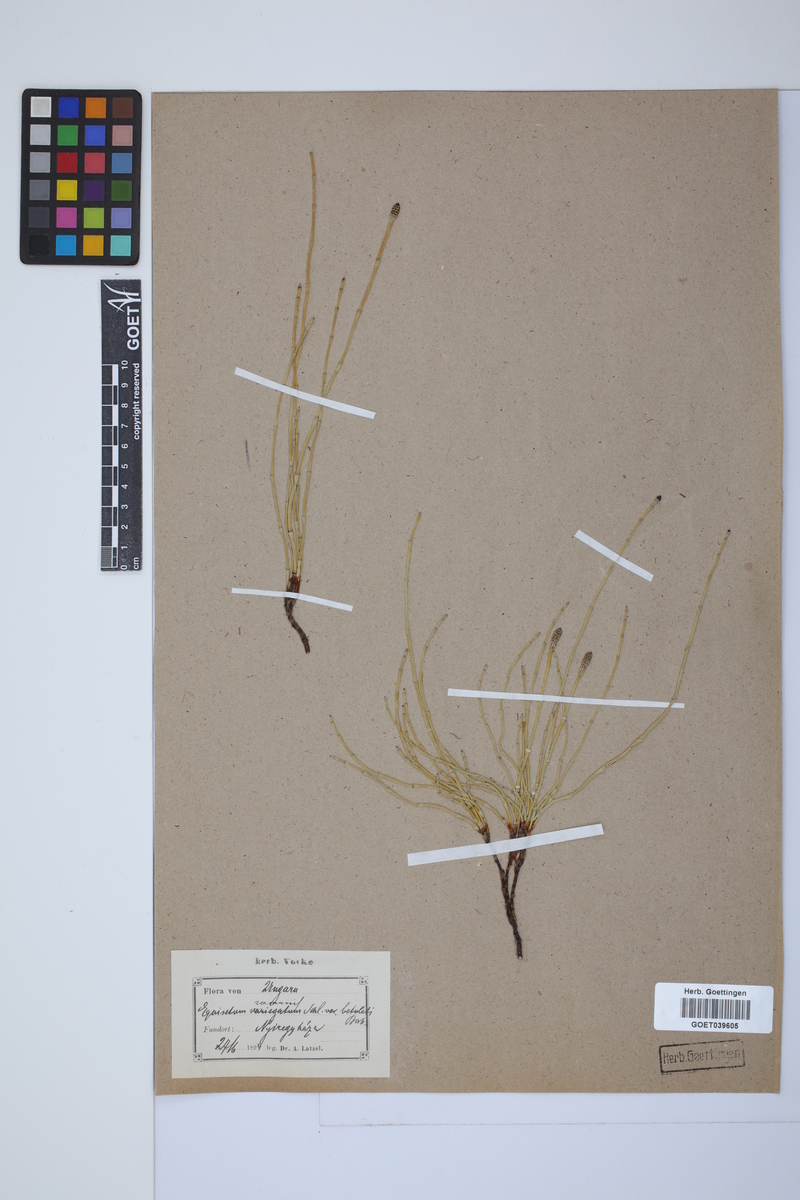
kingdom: Plantae
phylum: Tracheophyta
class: Polypodiopsida
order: Equisetales
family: Equisetaceae
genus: Equisetum
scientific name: Equisetum variegatum
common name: Variegated horsetail
